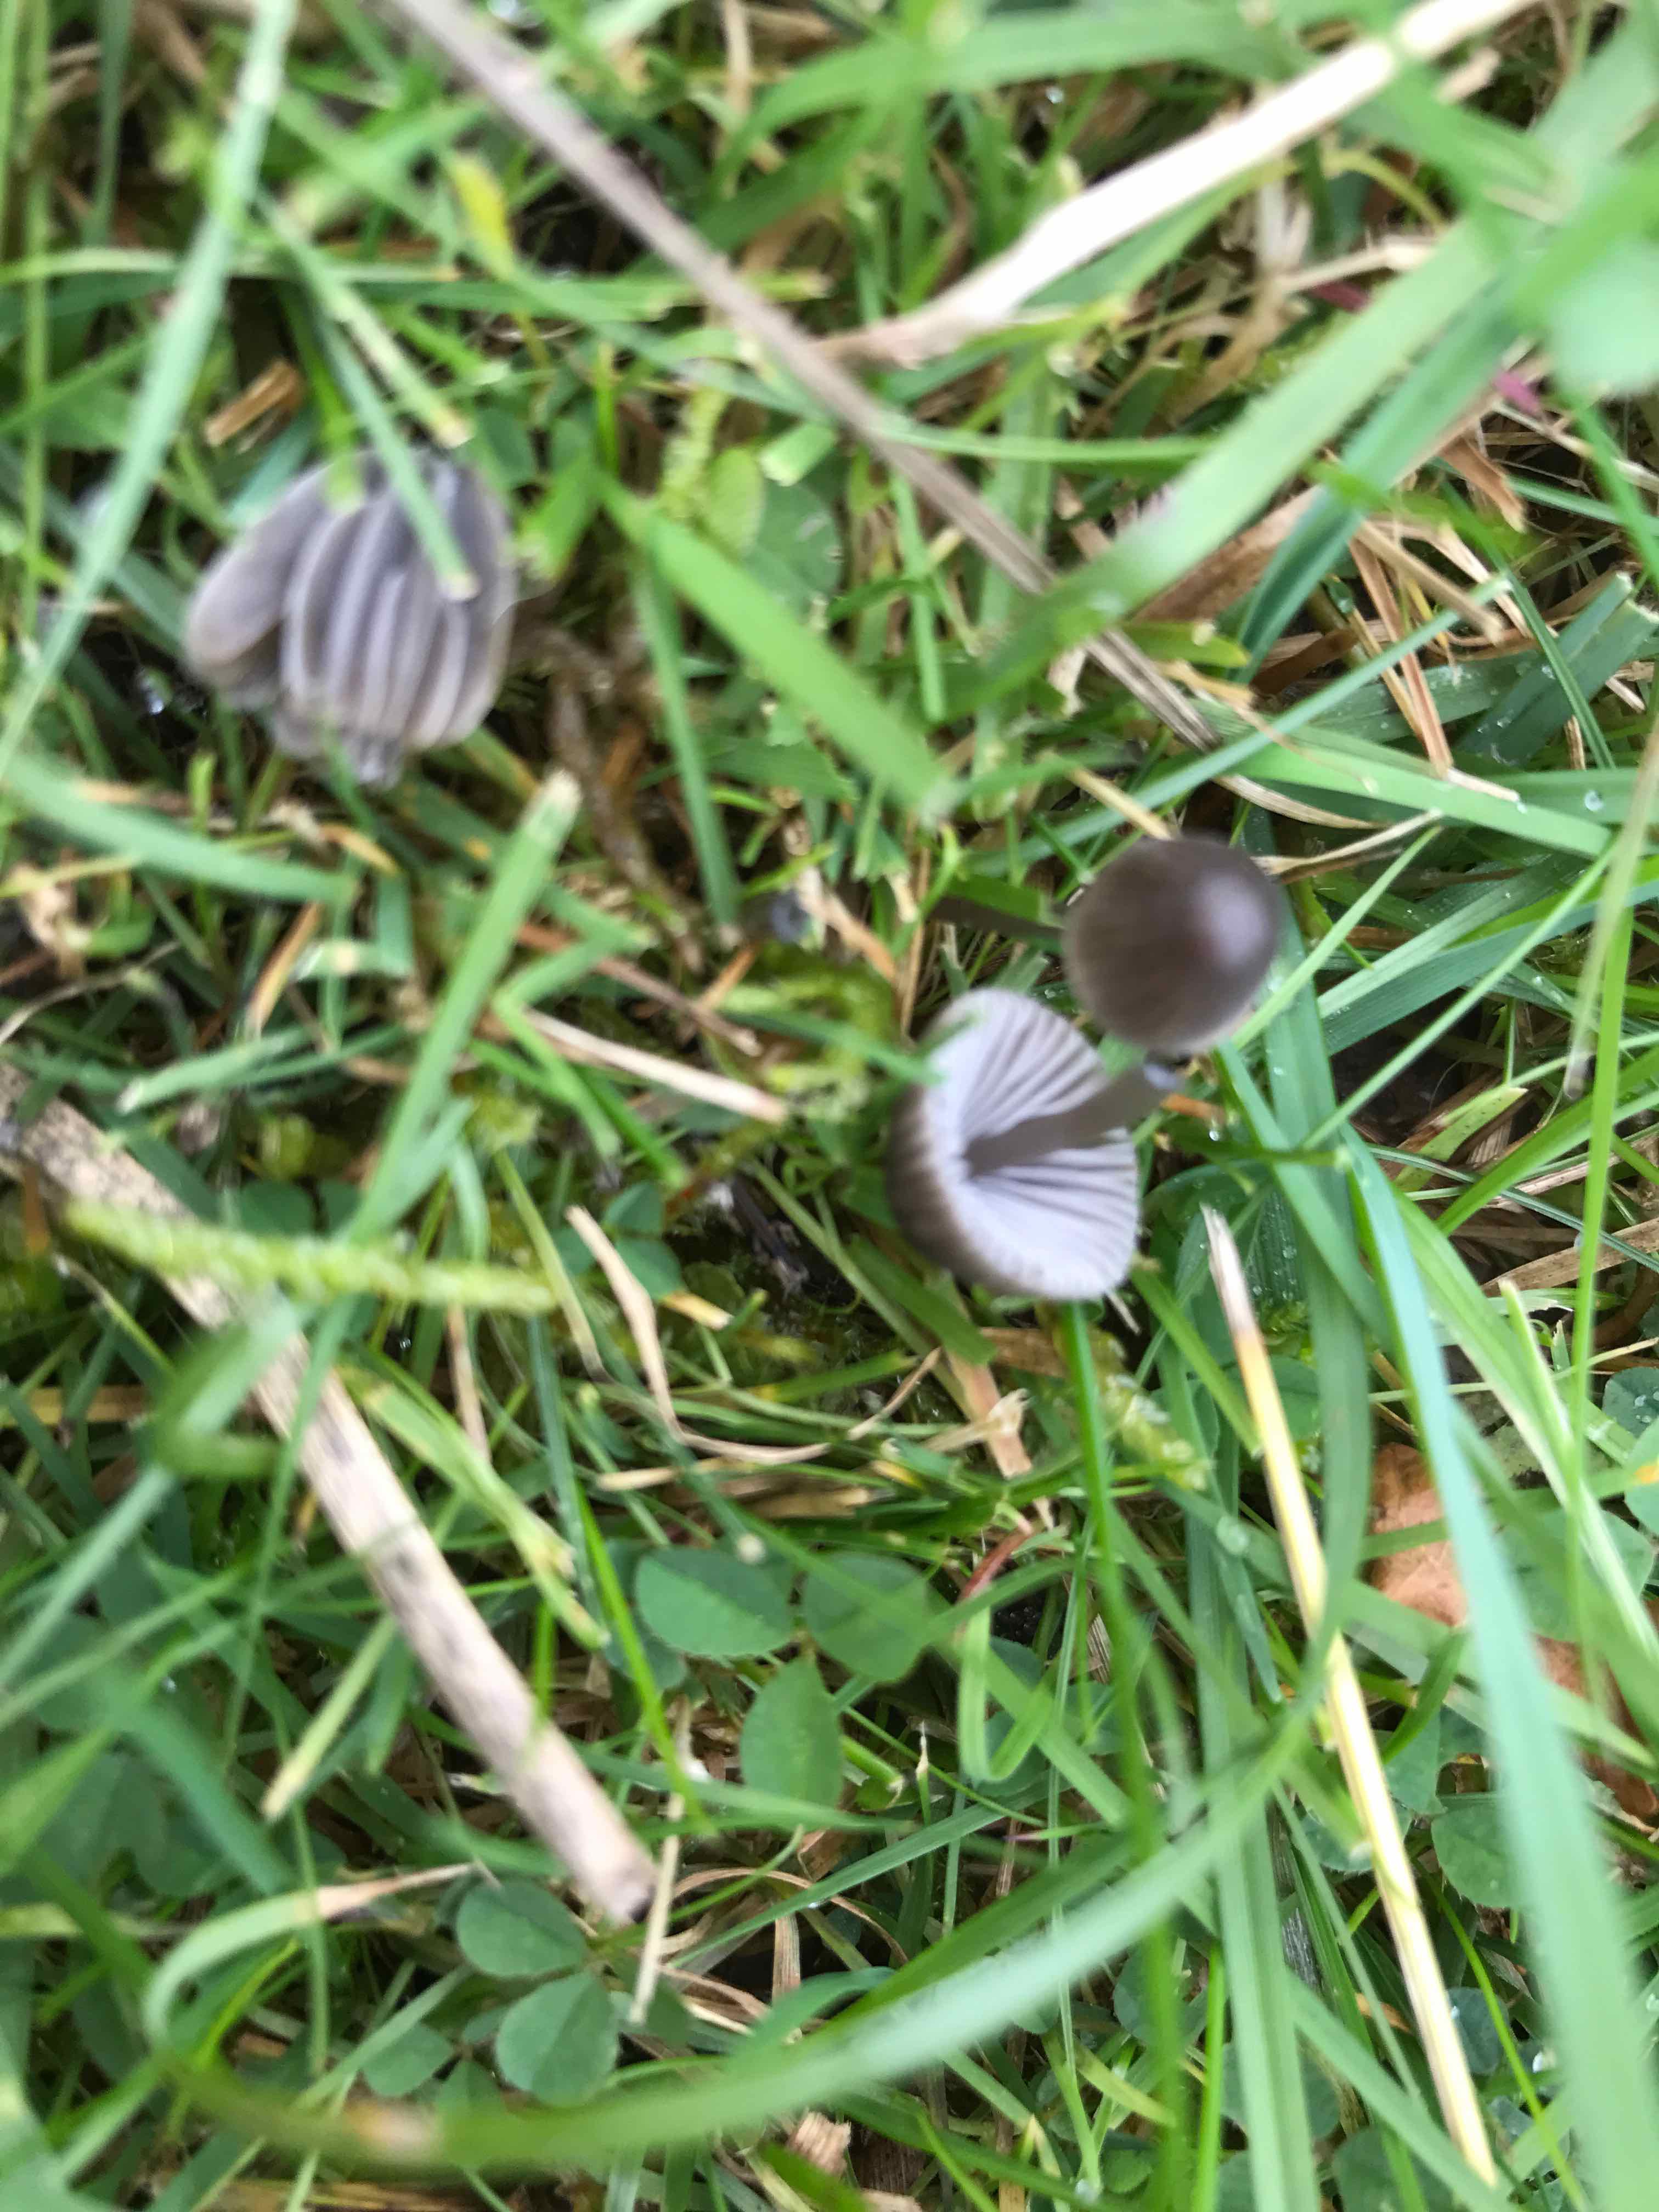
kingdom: Fungi
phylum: Basidiomycota
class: Agaricomycetes
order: Agaricales
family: Mycenaceae
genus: Mycena
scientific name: Mycena
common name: huesvamp
